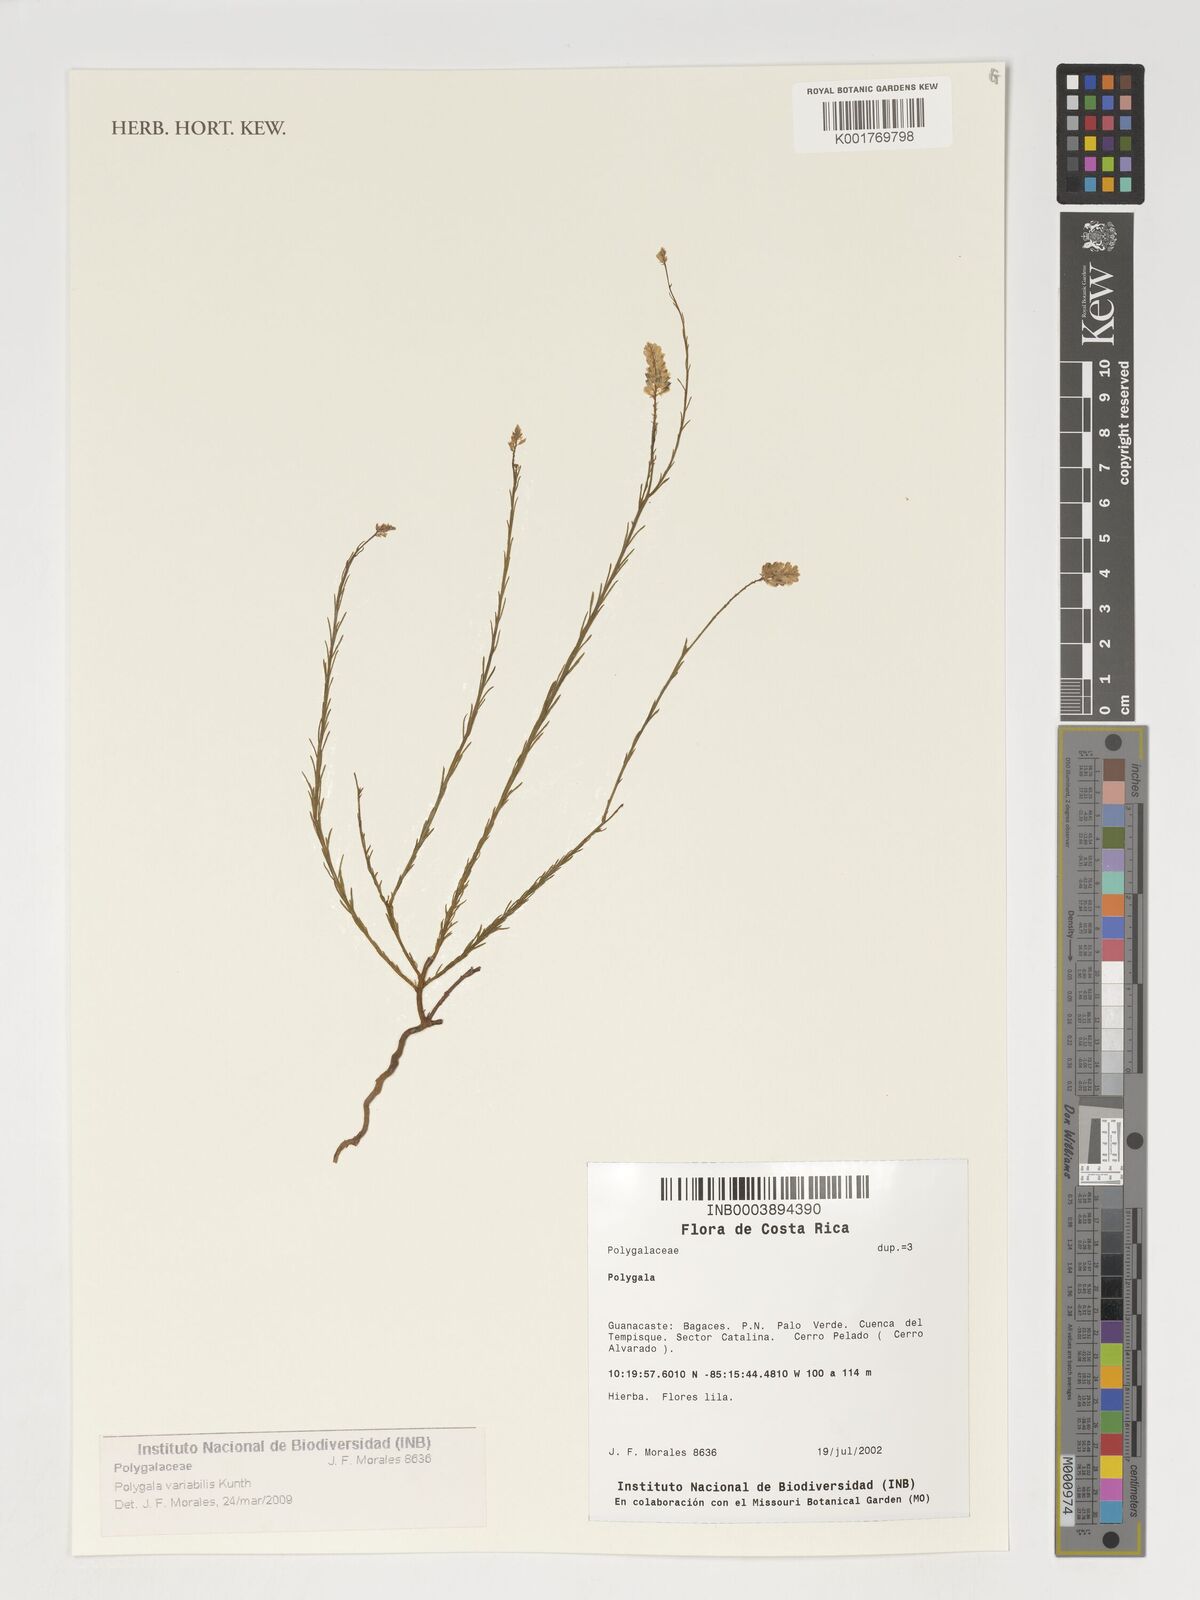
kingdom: Plantae
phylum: Tracheophyta
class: Magnoliopsida
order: Fabales
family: Polygalaceae
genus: Polygala
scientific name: Polygala trichosperma
